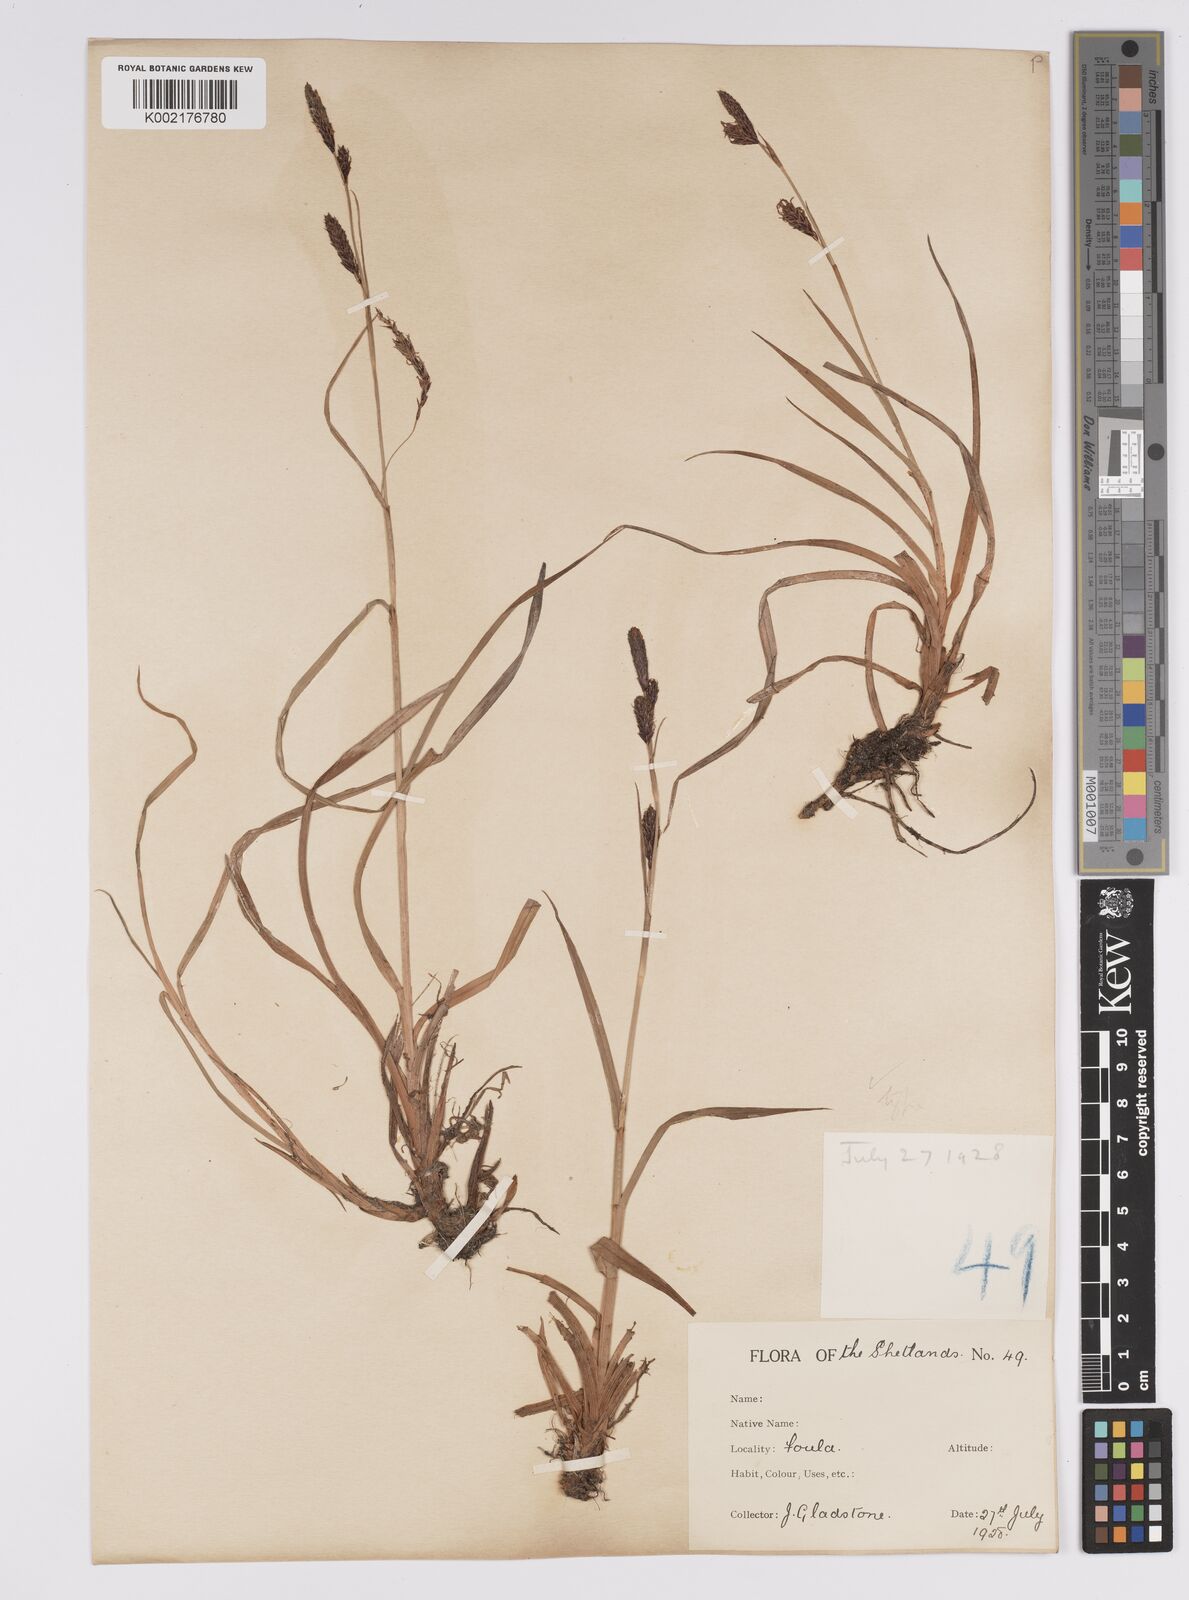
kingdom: Plantae
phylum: Tracheophyta
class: Liliopsida
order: Poales
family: Cyperaceae
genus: Carex
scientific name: Carex binervis
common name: Green-ribbed sedge
